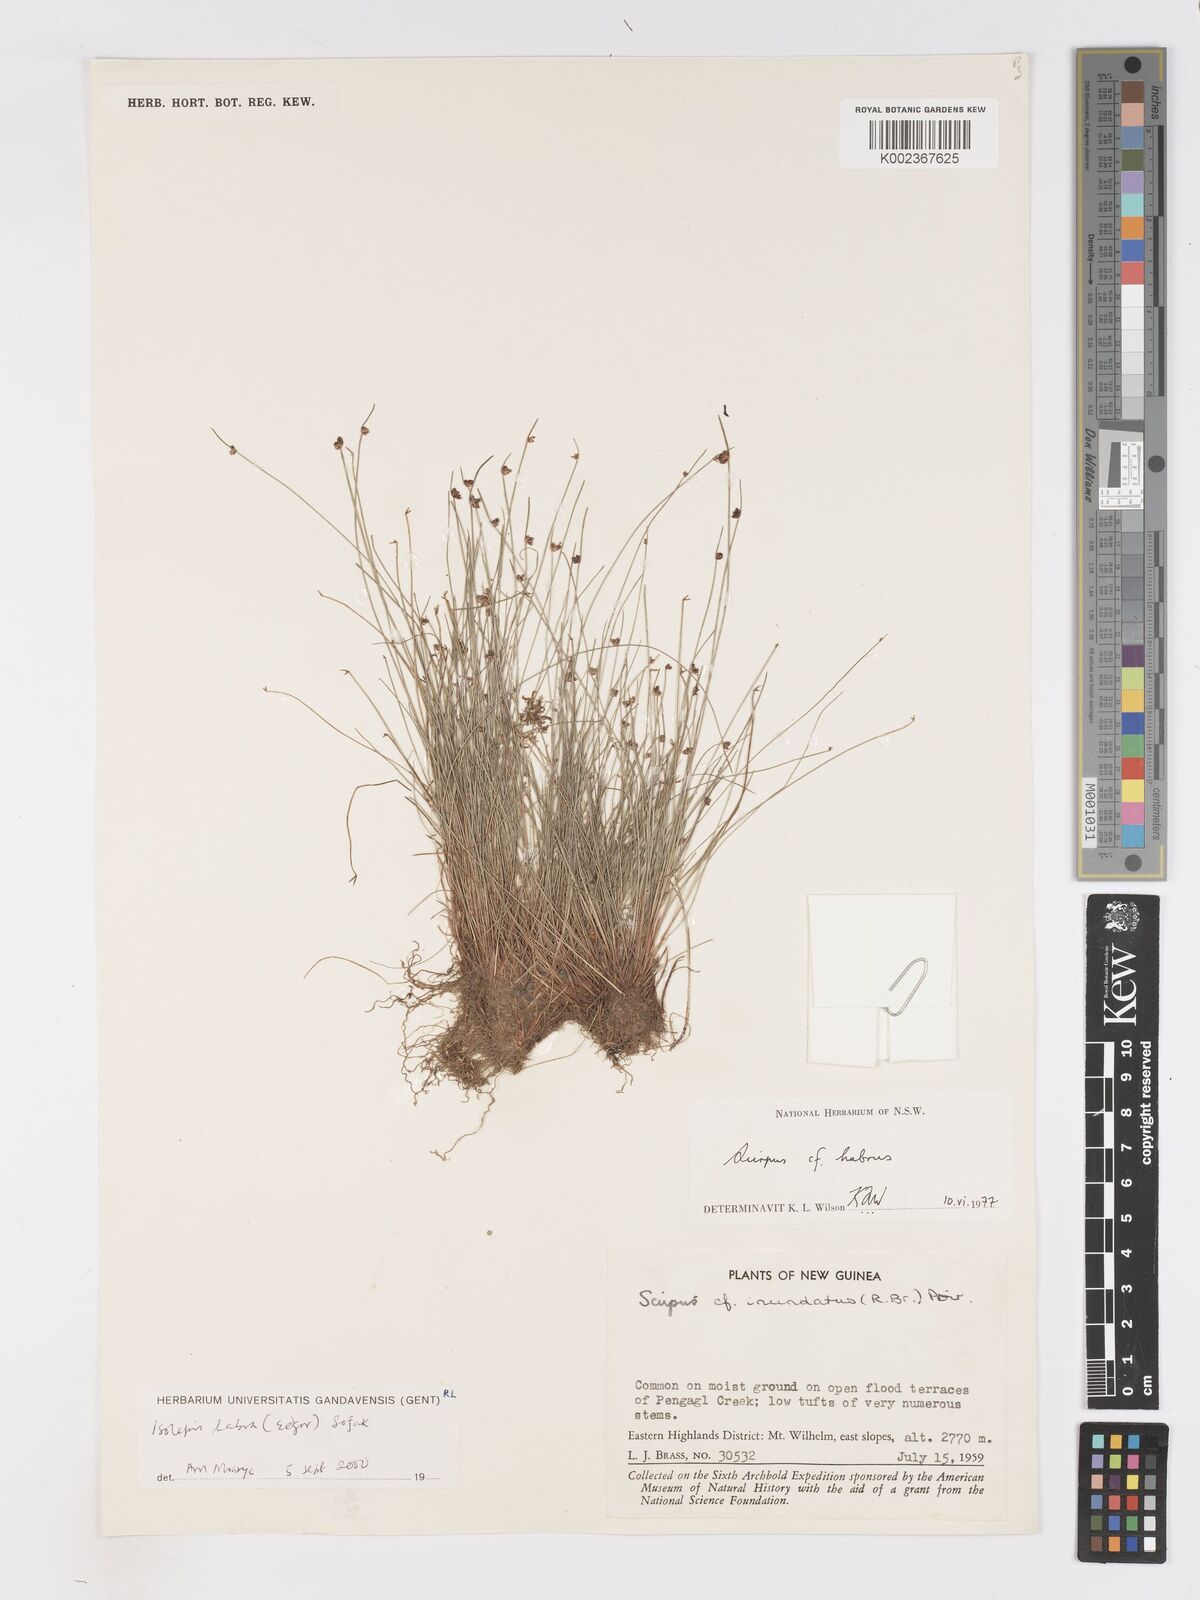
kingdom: Plantae
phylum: Tracheophyta
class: Liliopsida
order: Poales
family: Cyperaceae
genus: Isolepis
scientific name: Isolepis habra
